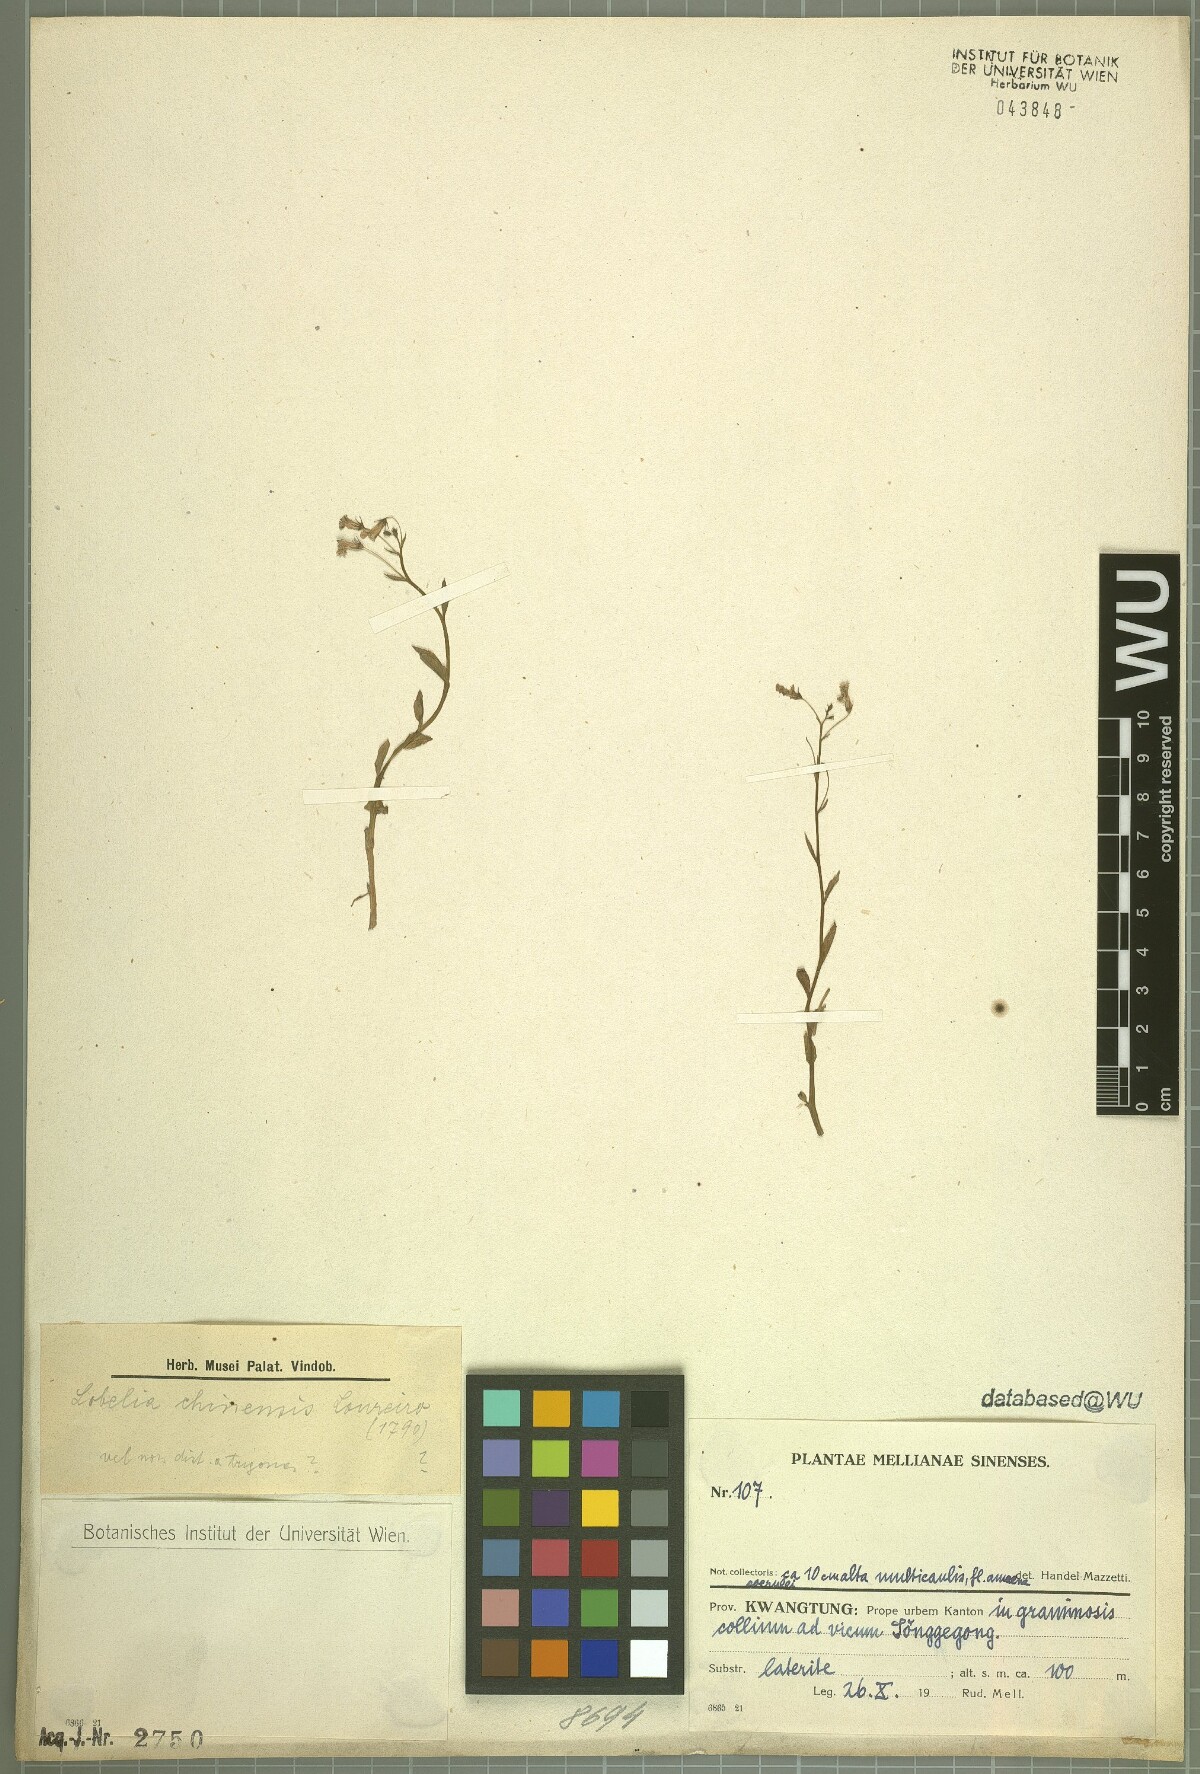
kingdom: Plantae
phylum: Tracheophyta
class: Magnoliopsida
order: Asterales
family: Campanulaceae
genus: Lobelia
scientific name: Lobelia chinensis
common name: Chinese lobelia
